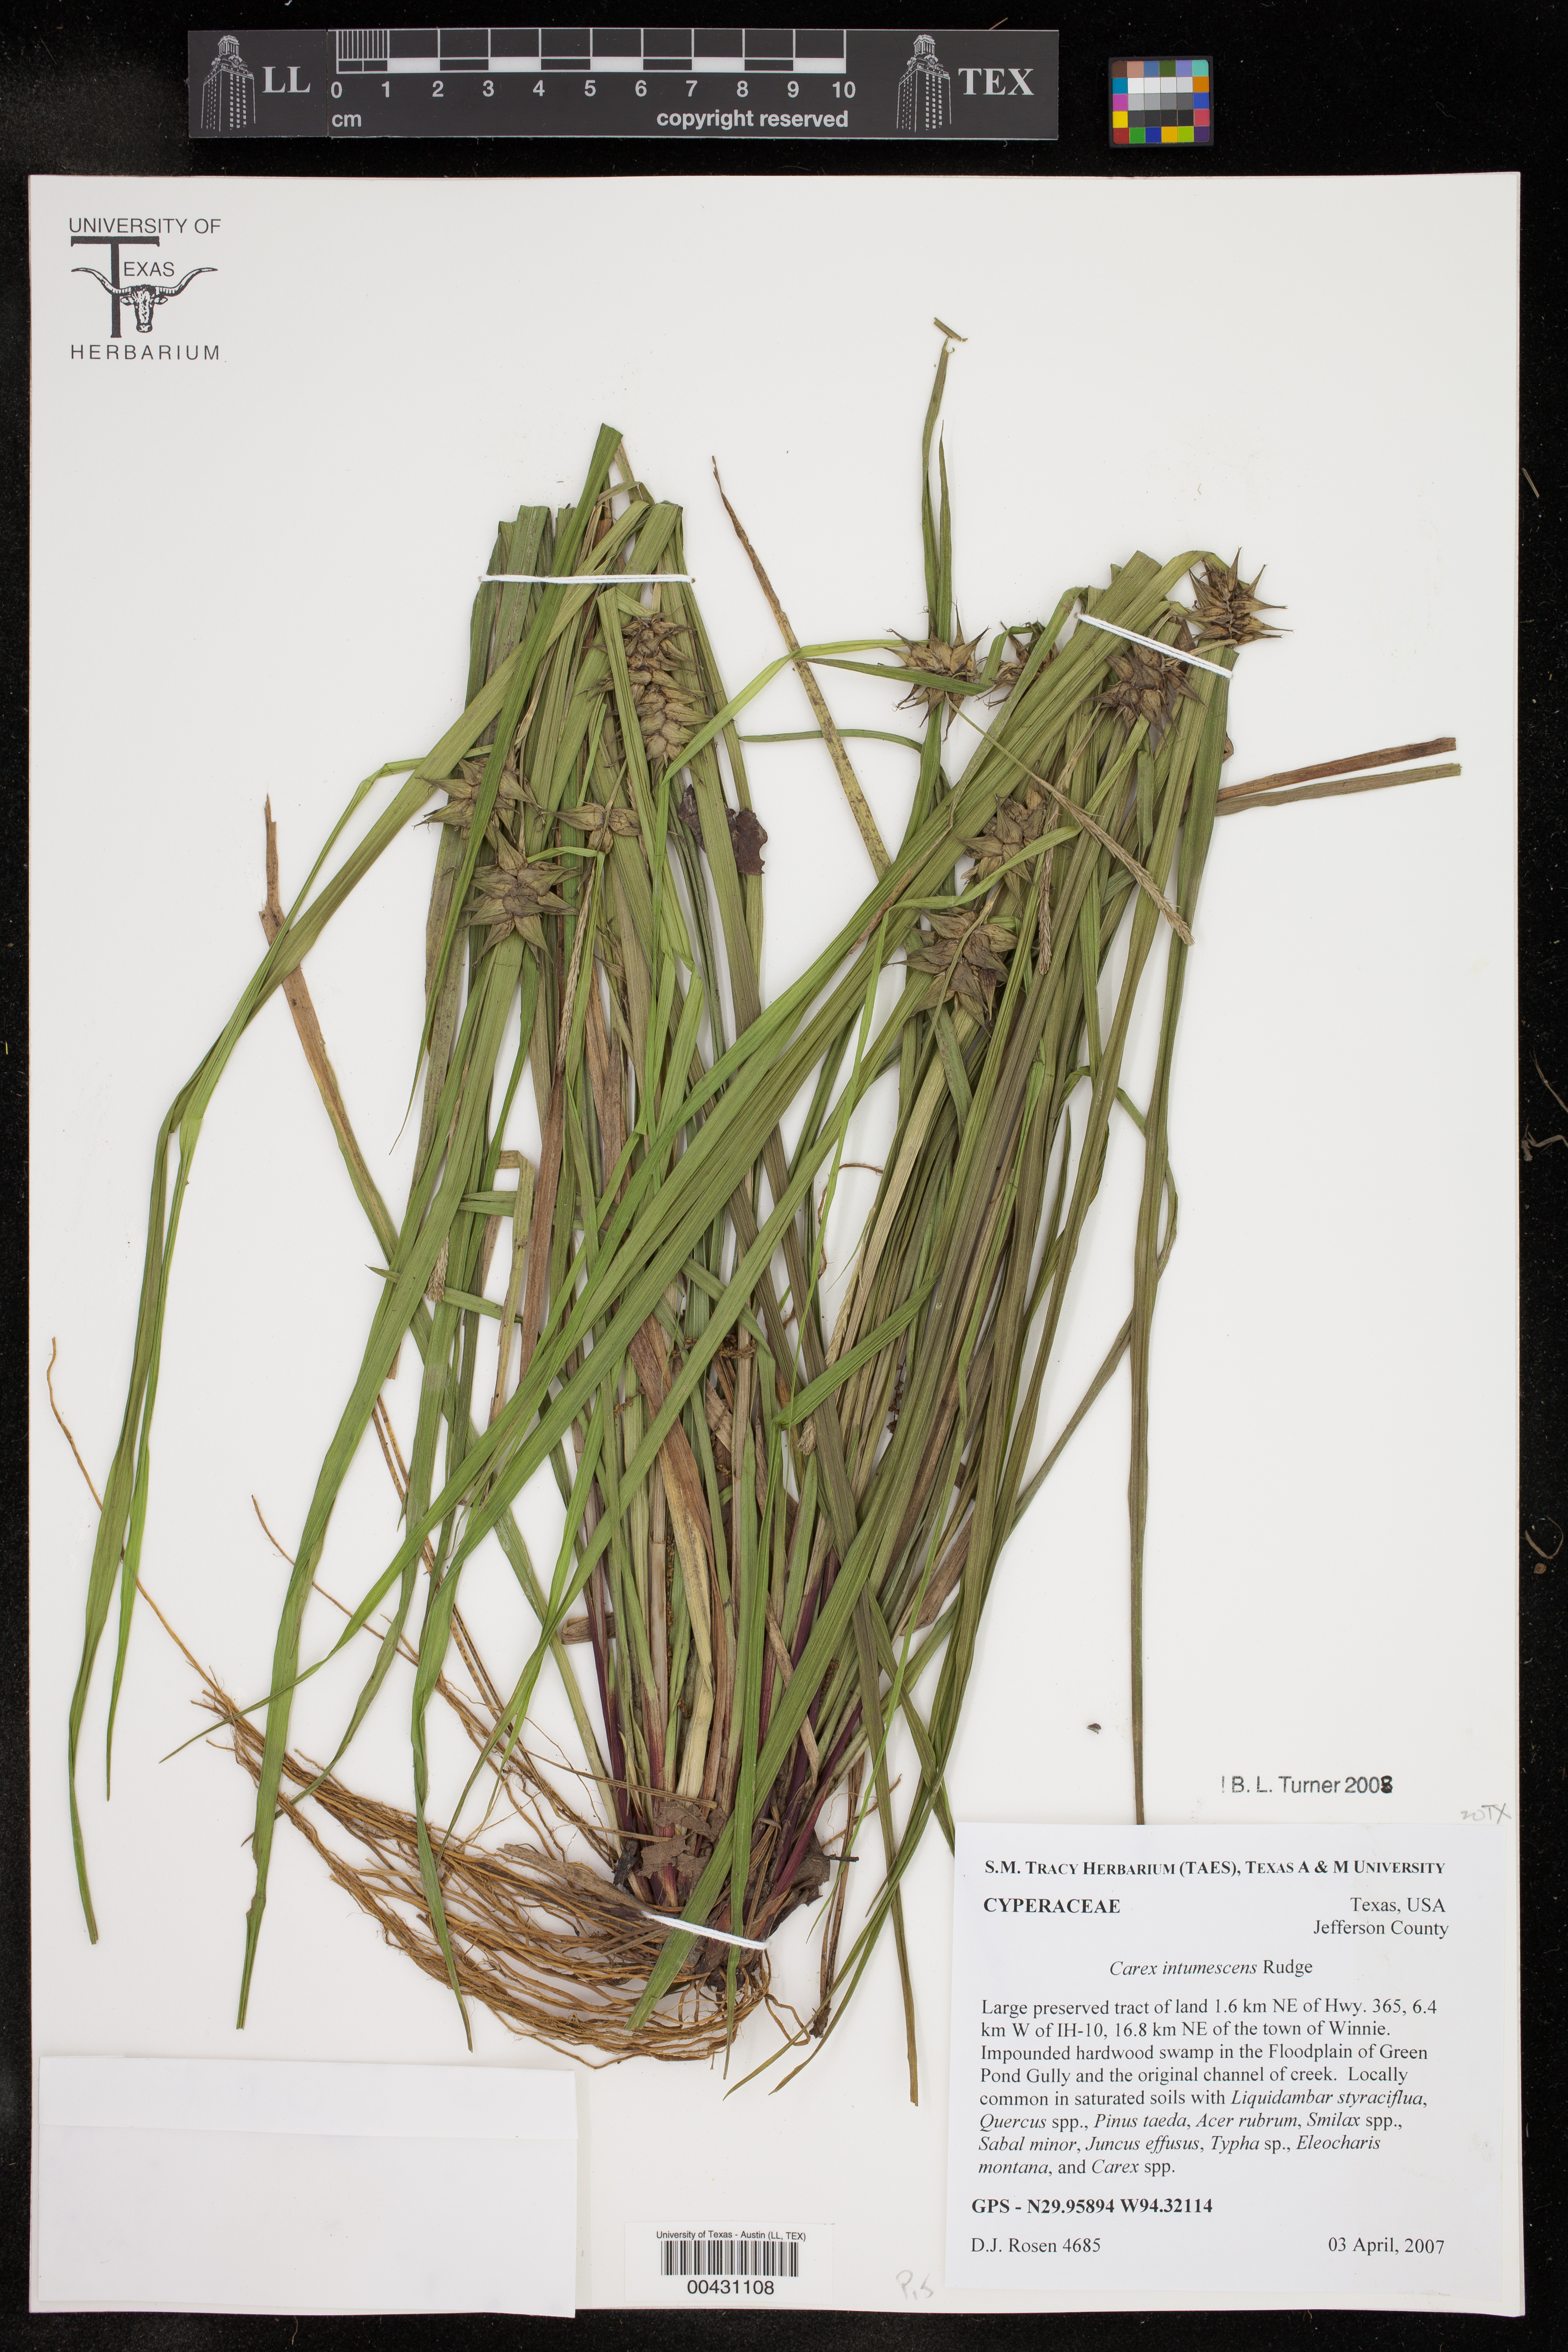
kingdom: Plantae
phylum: Tracheophyta
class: Liliopsida
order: Poales
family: Cyperaceae
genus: Carex
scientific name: Carex intumescens
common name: Greater bladder sedge
